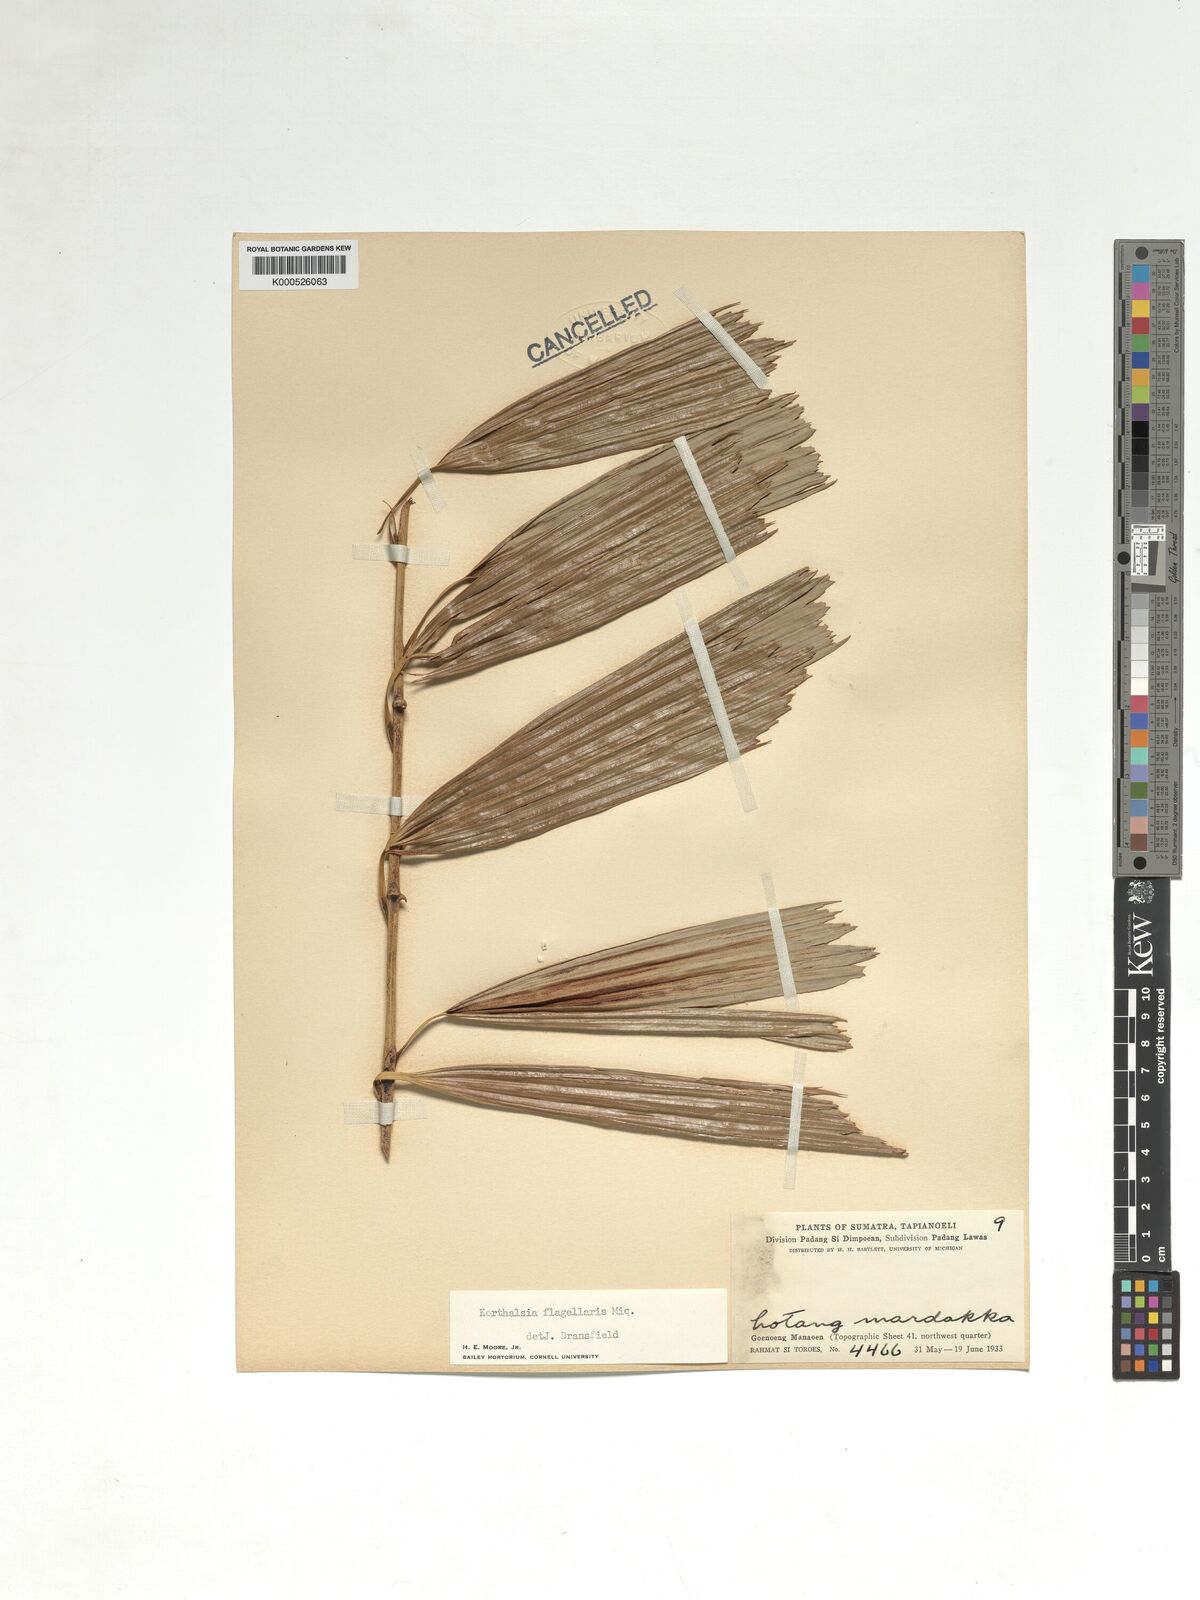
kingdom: Plantae
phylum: Tracheophyta
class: Liliopsida
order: Arecales
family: Arecaceae
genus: Korthalsia
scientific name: Korthalsia flagellaris
